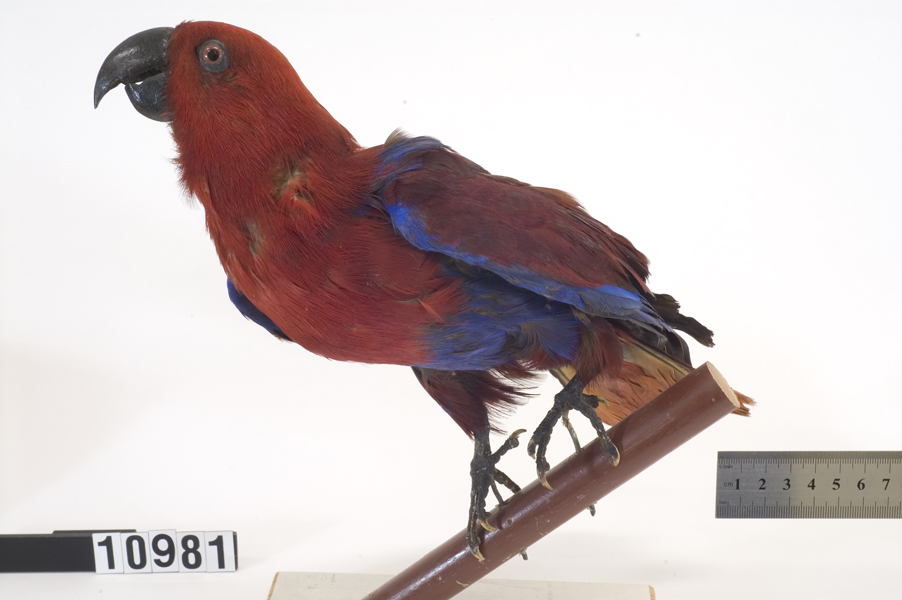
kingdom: Animalia
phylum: Chordata
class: Aves
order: Psittaciformes
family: Psittacidae
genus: Eclectus
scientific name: Eclectus roratus
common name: Eclectus parrot
